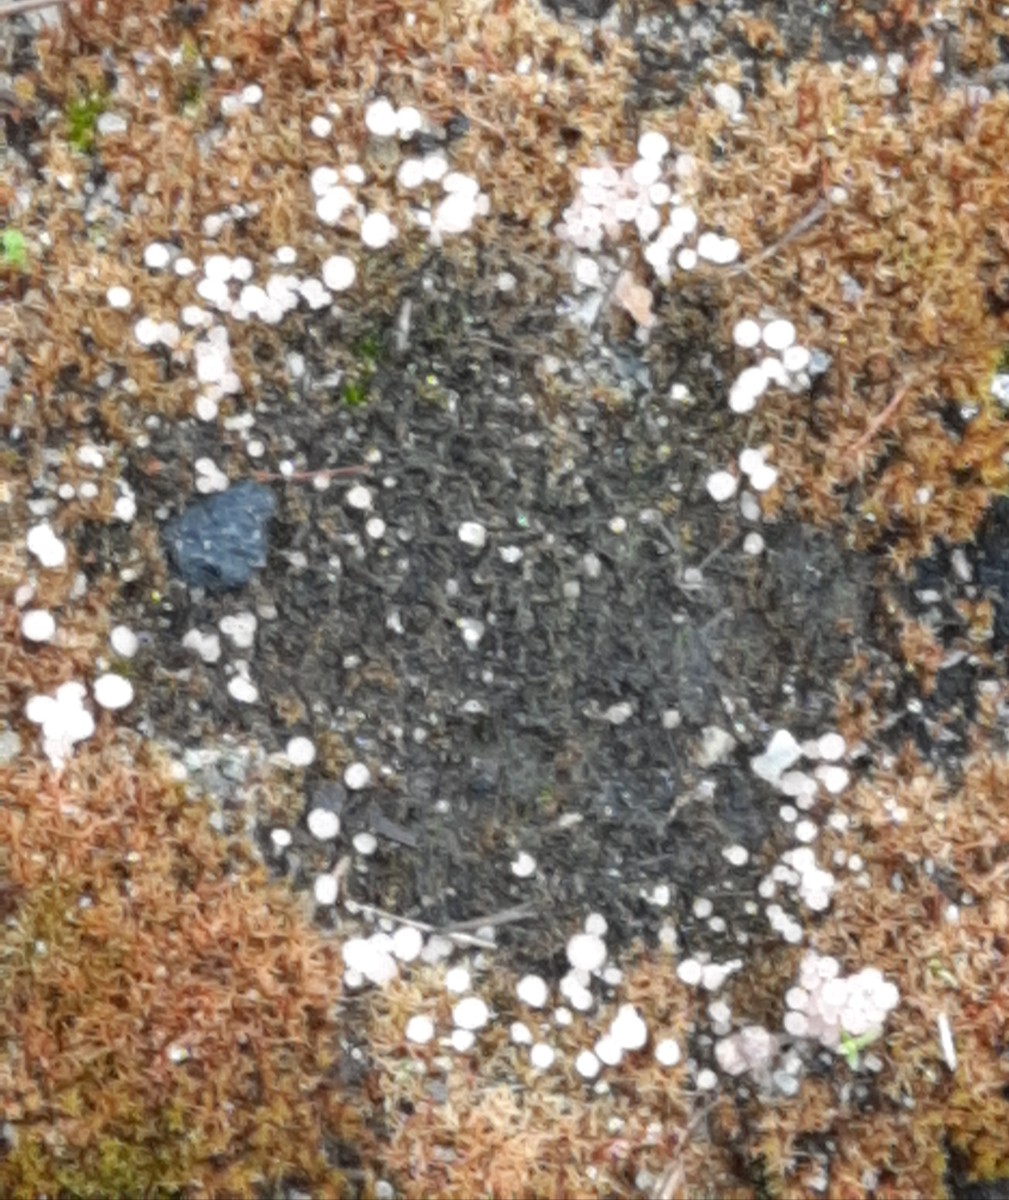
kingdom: Fungi
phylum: Ascomycota
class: Leotiomycetes
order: Helotiales
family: Hyaloscyphaceae
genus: Roseodiscus
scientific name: Roseodiscus formosus
